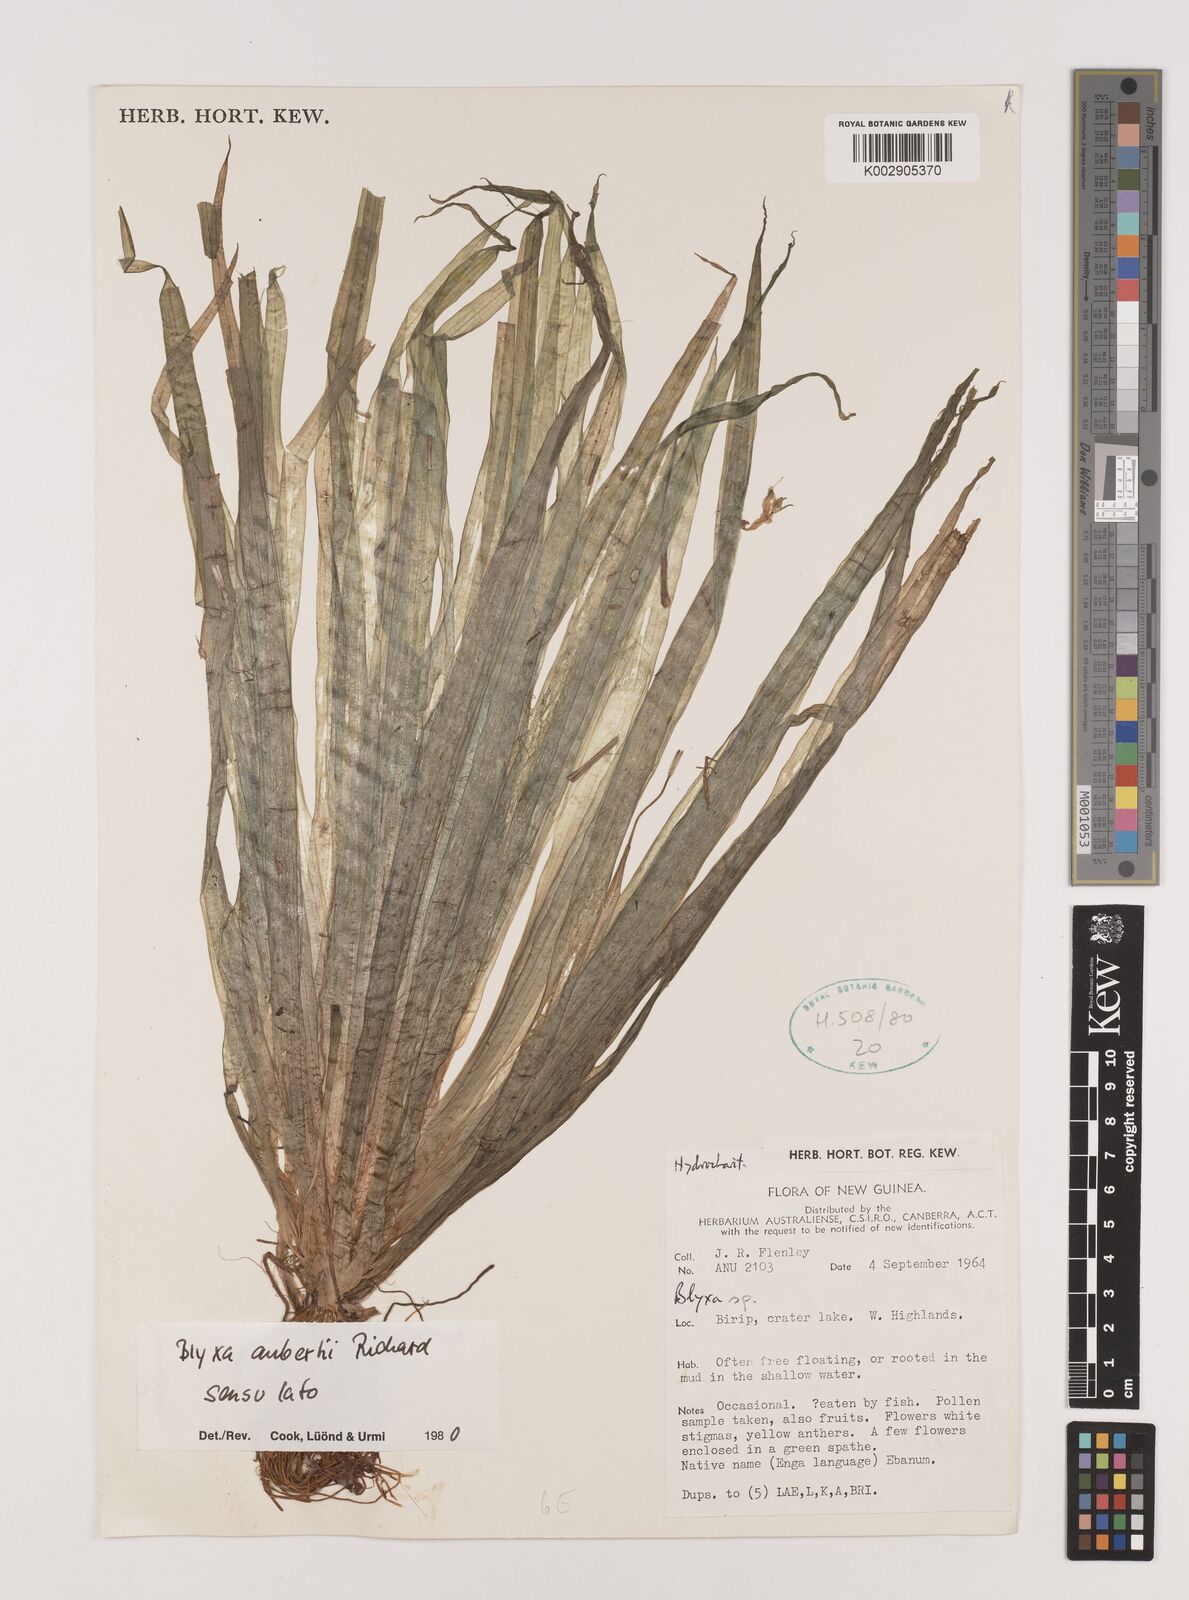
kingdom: Plantae
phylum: Tracheophyta
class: Liliopsida
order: Alismatales
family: Hydrocharitaceae
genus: Blyxa
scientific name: Blyxa aubertii
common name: Roundfruit blyxa
